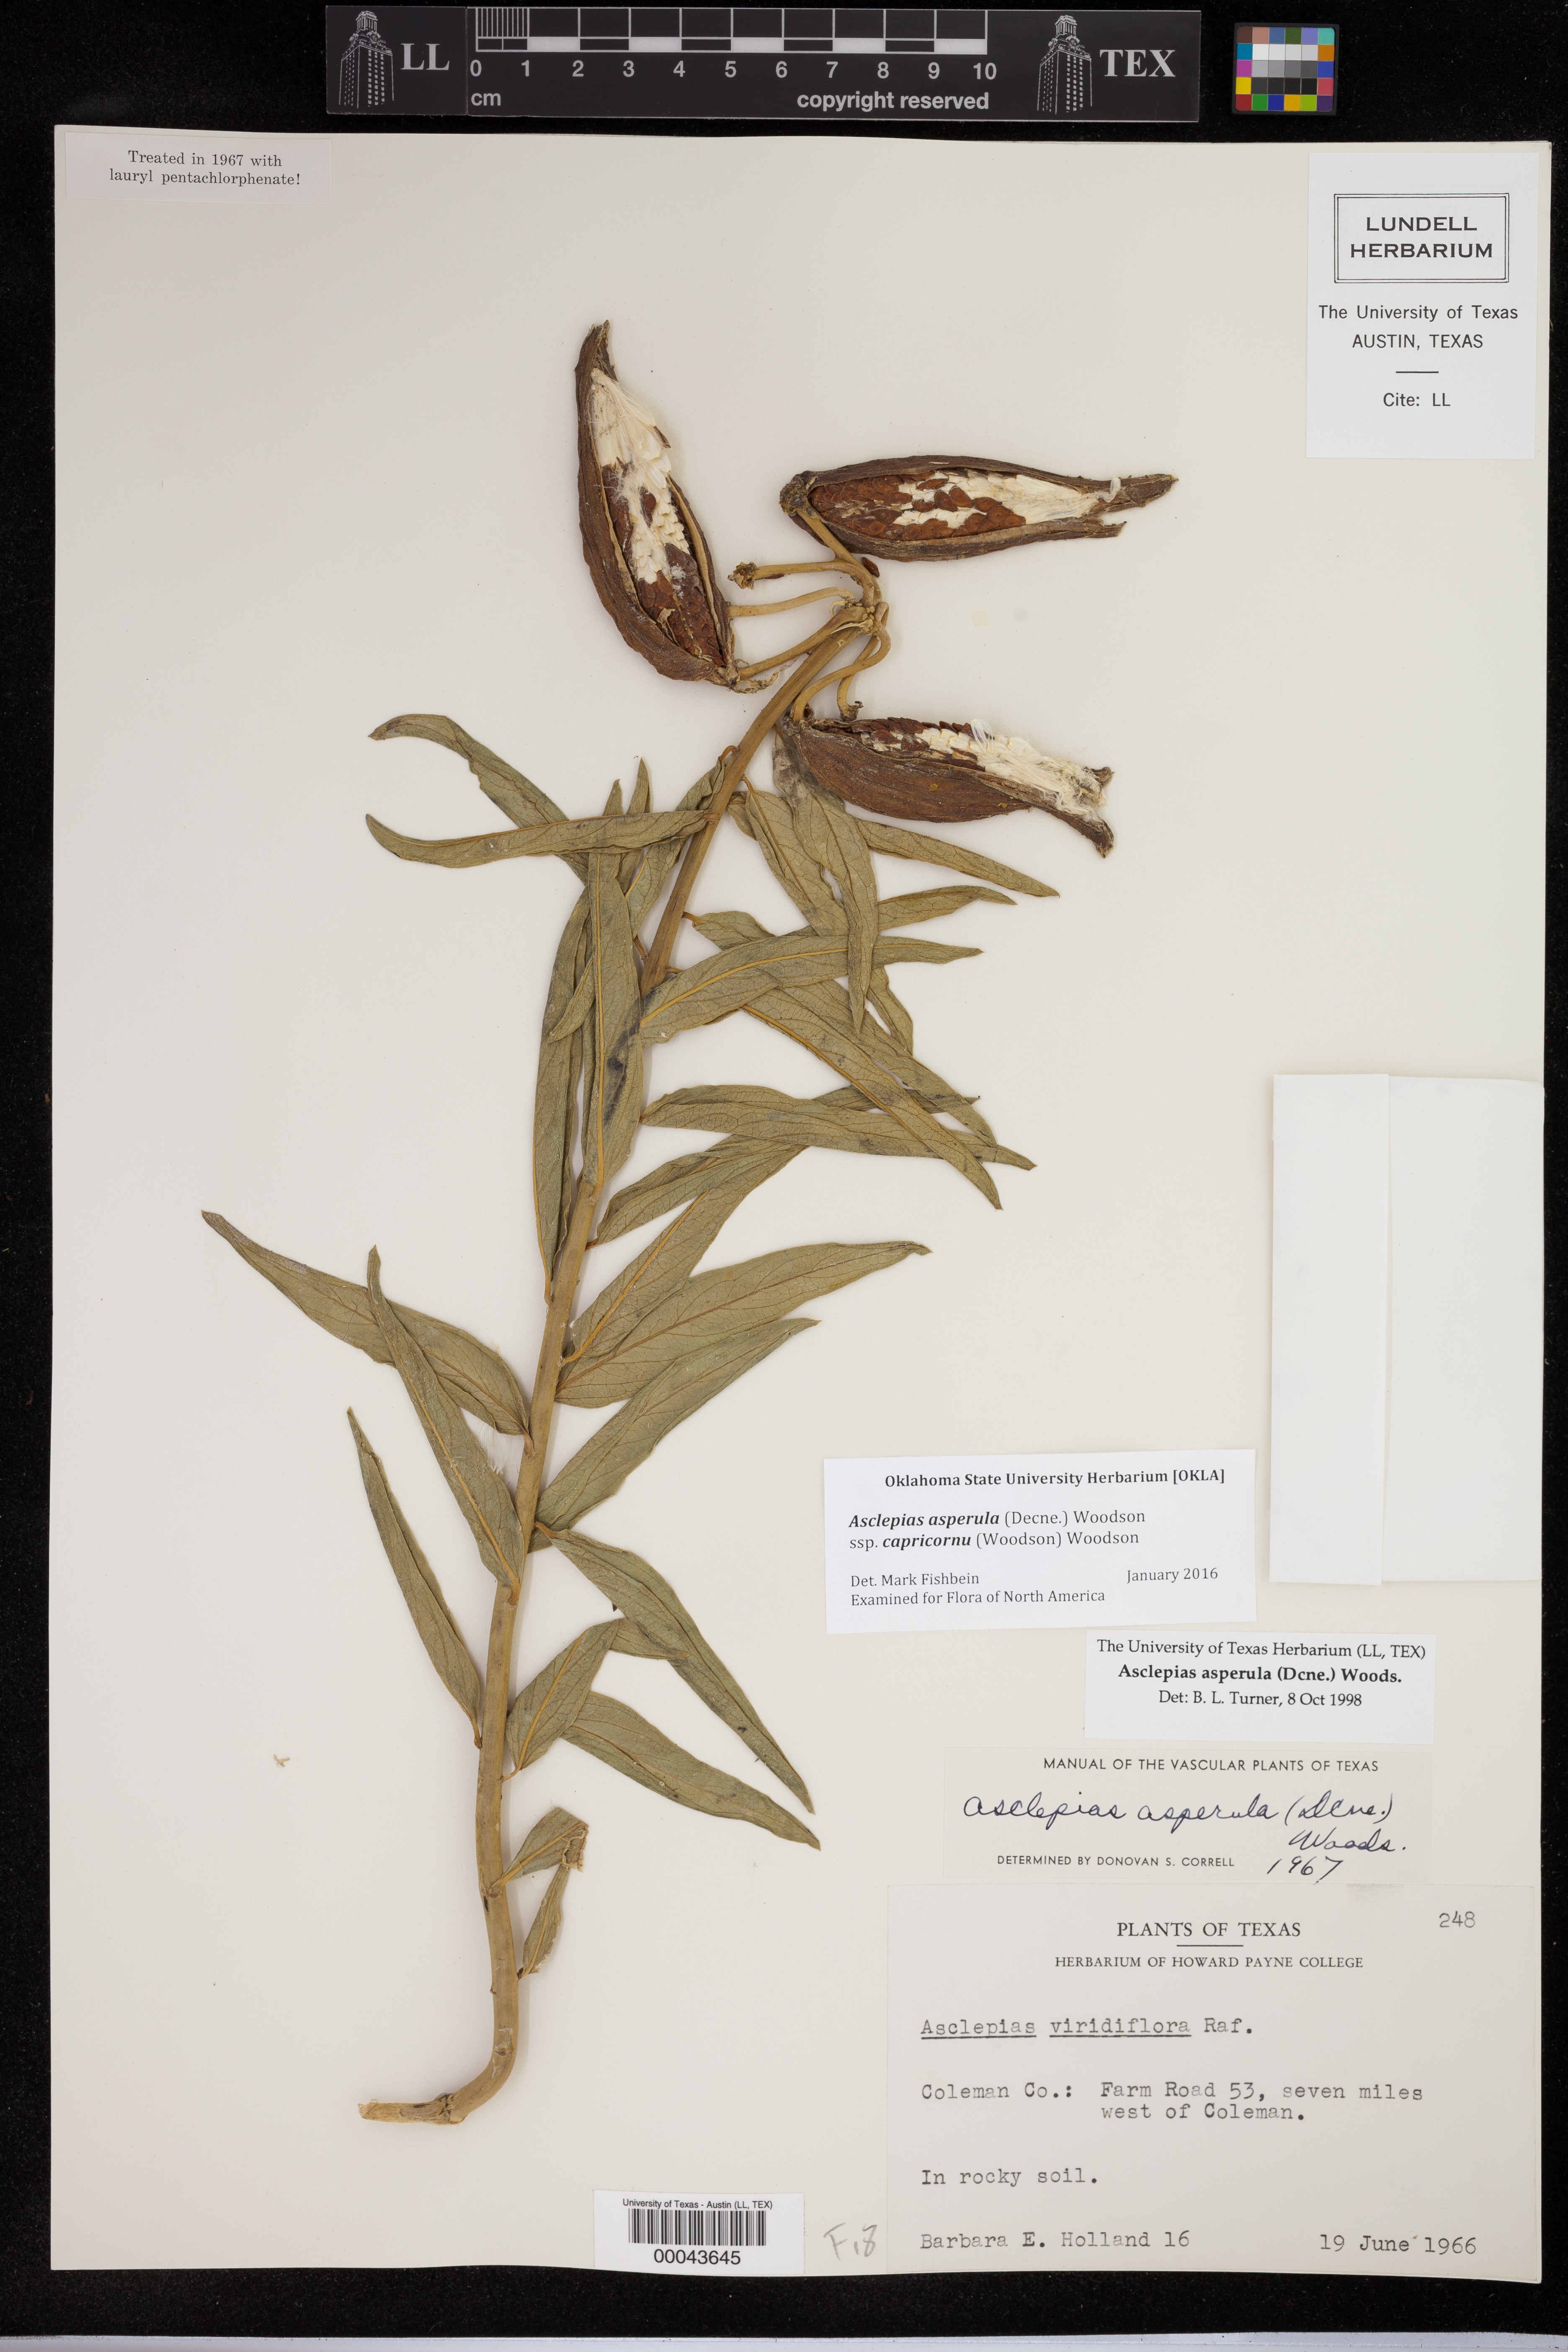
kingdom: Plantae
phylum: Tracheophyta
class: Magnoliopsida
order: Gentianales
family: Apocynaceae
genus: Asclepias
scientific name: Asclepias asperula
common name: Antelope horns
